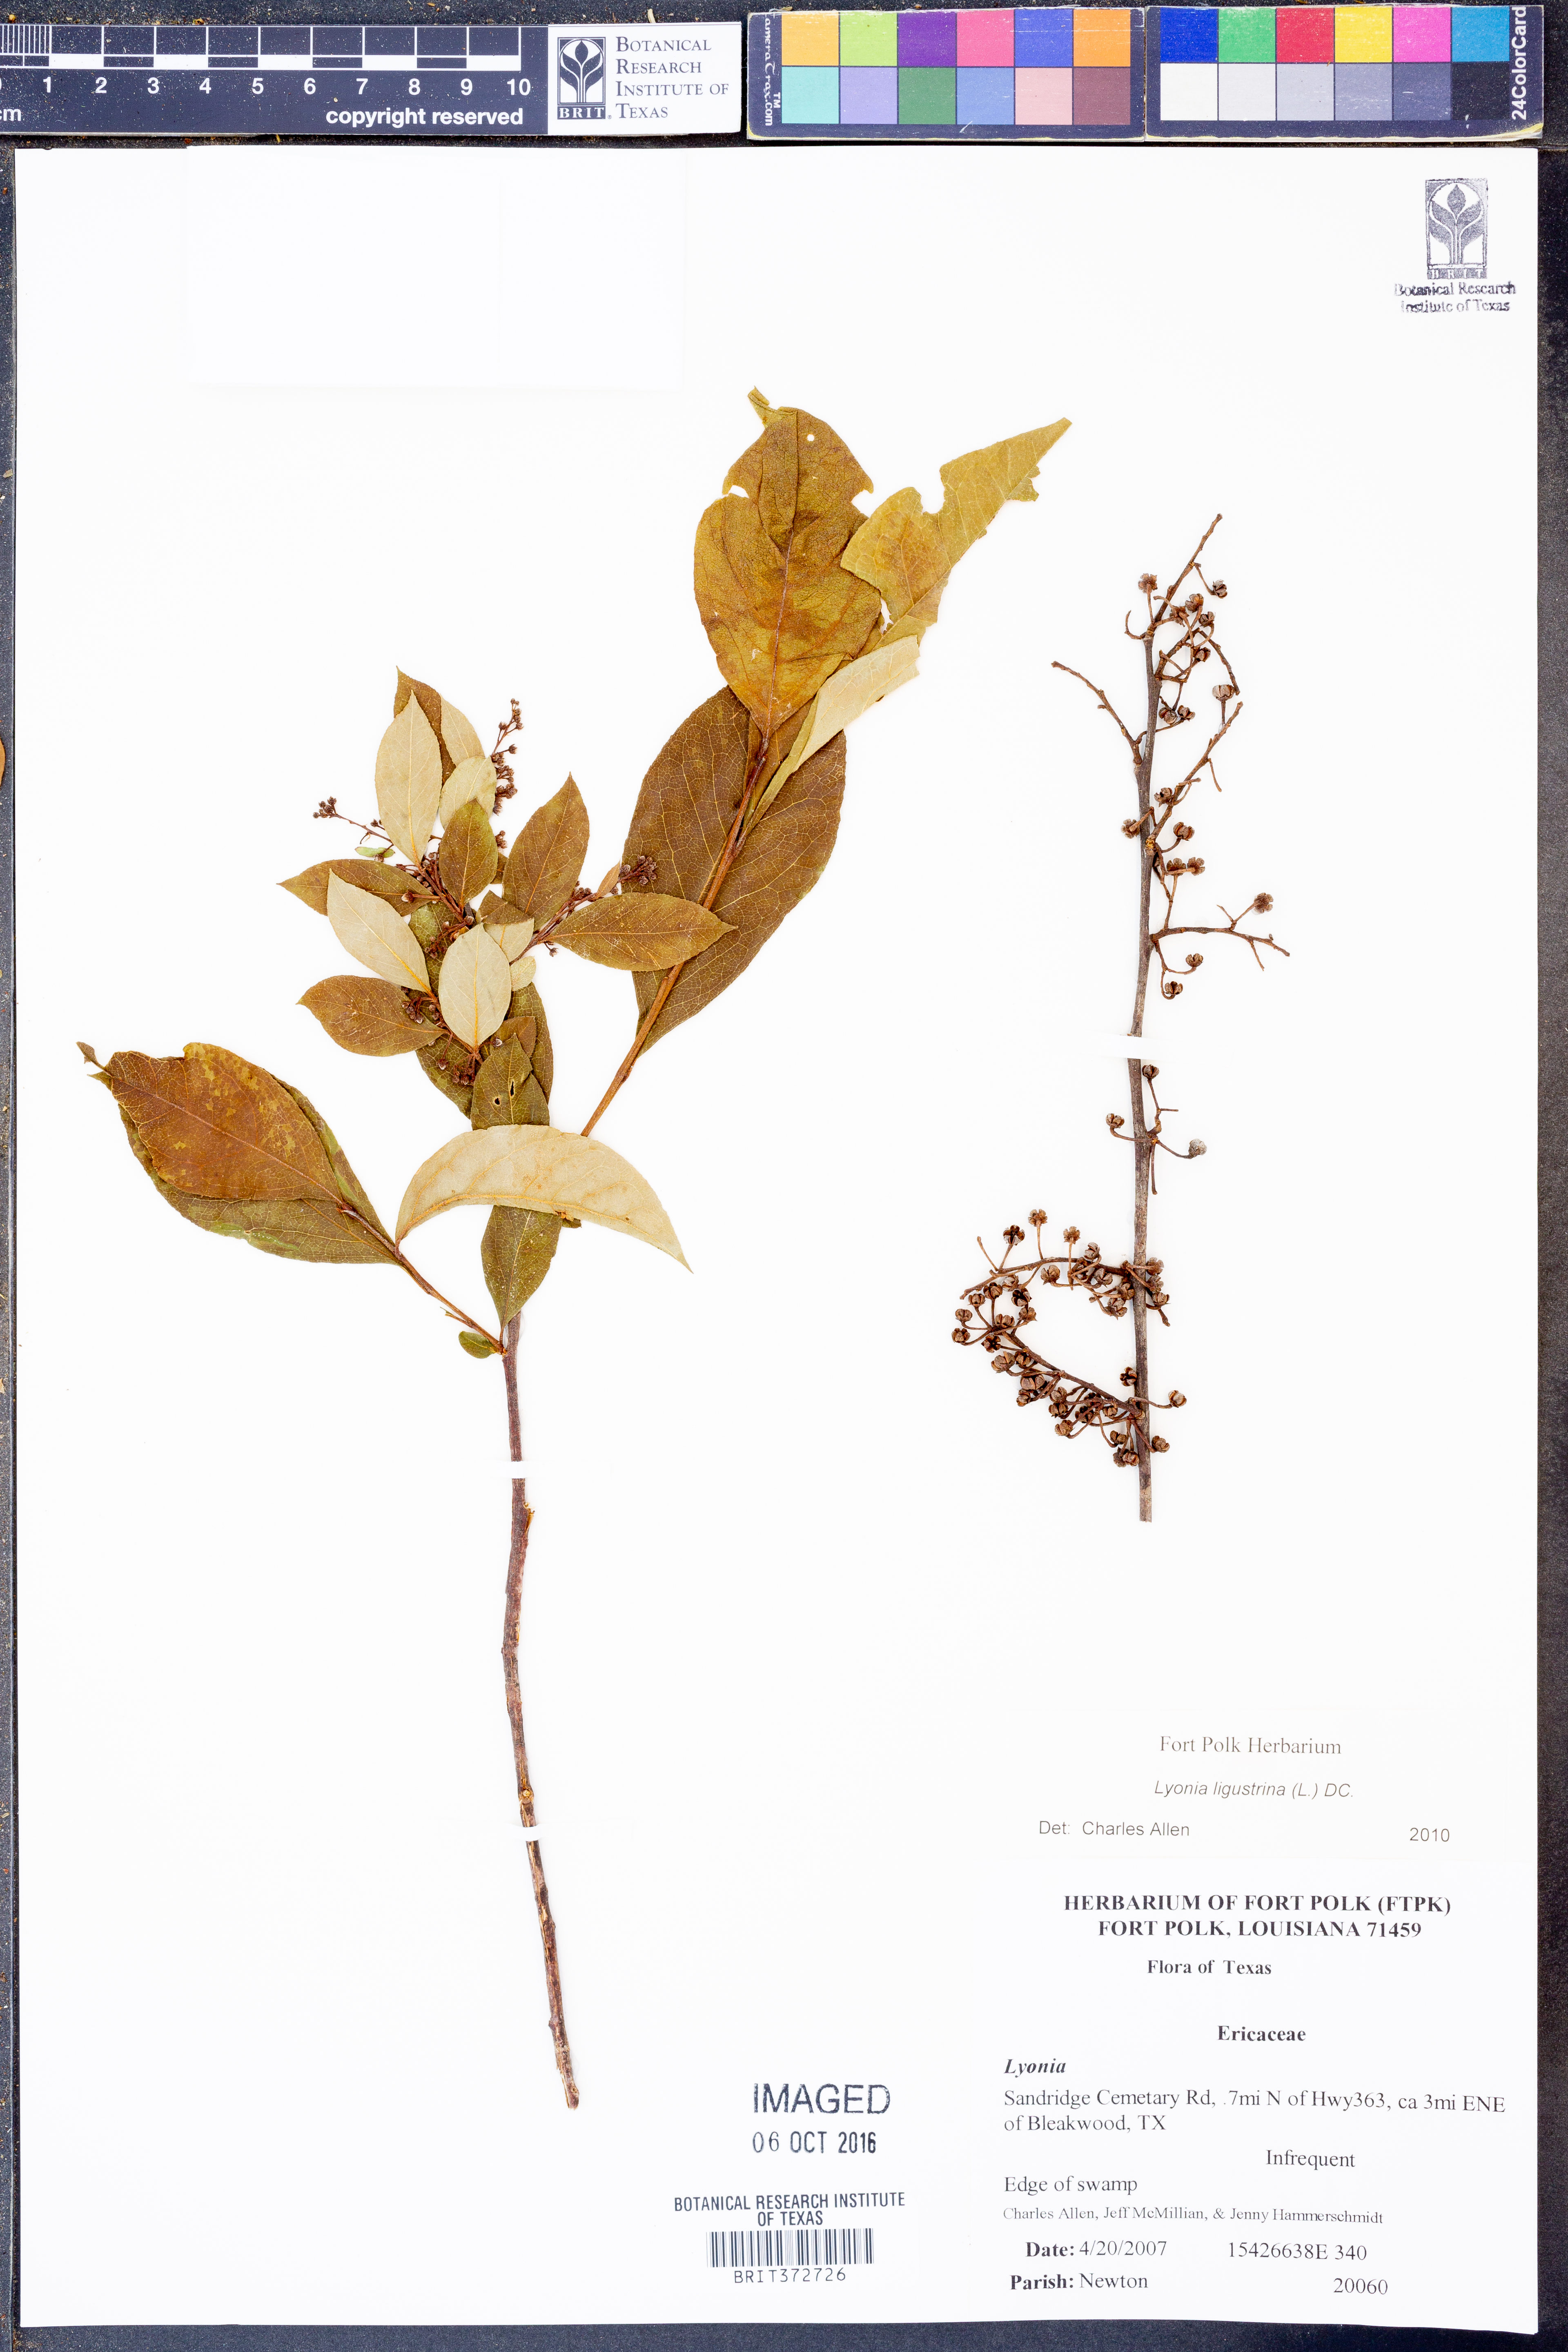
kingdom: Plantae
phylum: Tracheophyta
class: Magnoliopsida
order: Ericales
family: Ericaceae
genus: Lyonia
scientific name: Lyonia ligustrina
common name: Maleberry
